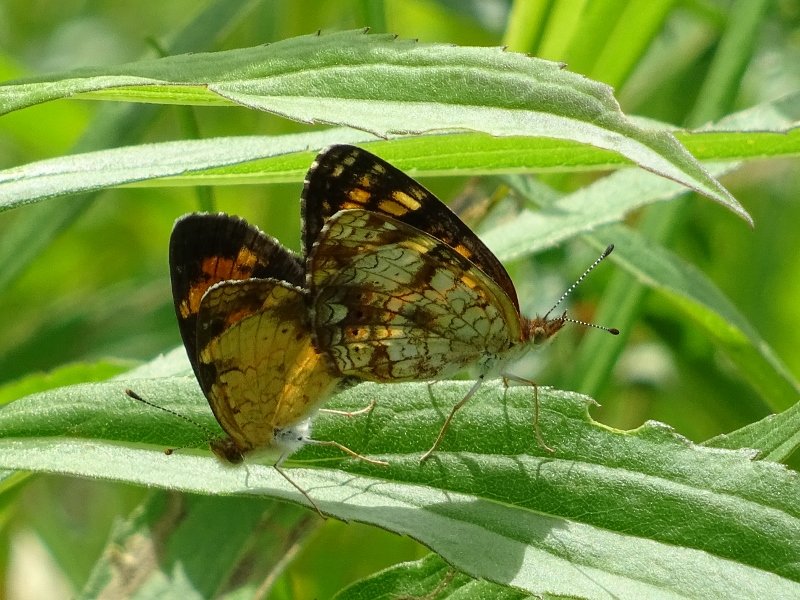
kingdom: Animalia
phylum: Arthropoda
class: Insecta
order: Lepidoptera
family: Nymphalidae
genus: Phyciodes
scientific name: Phyciodes tharos
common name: Pearl Crescent
